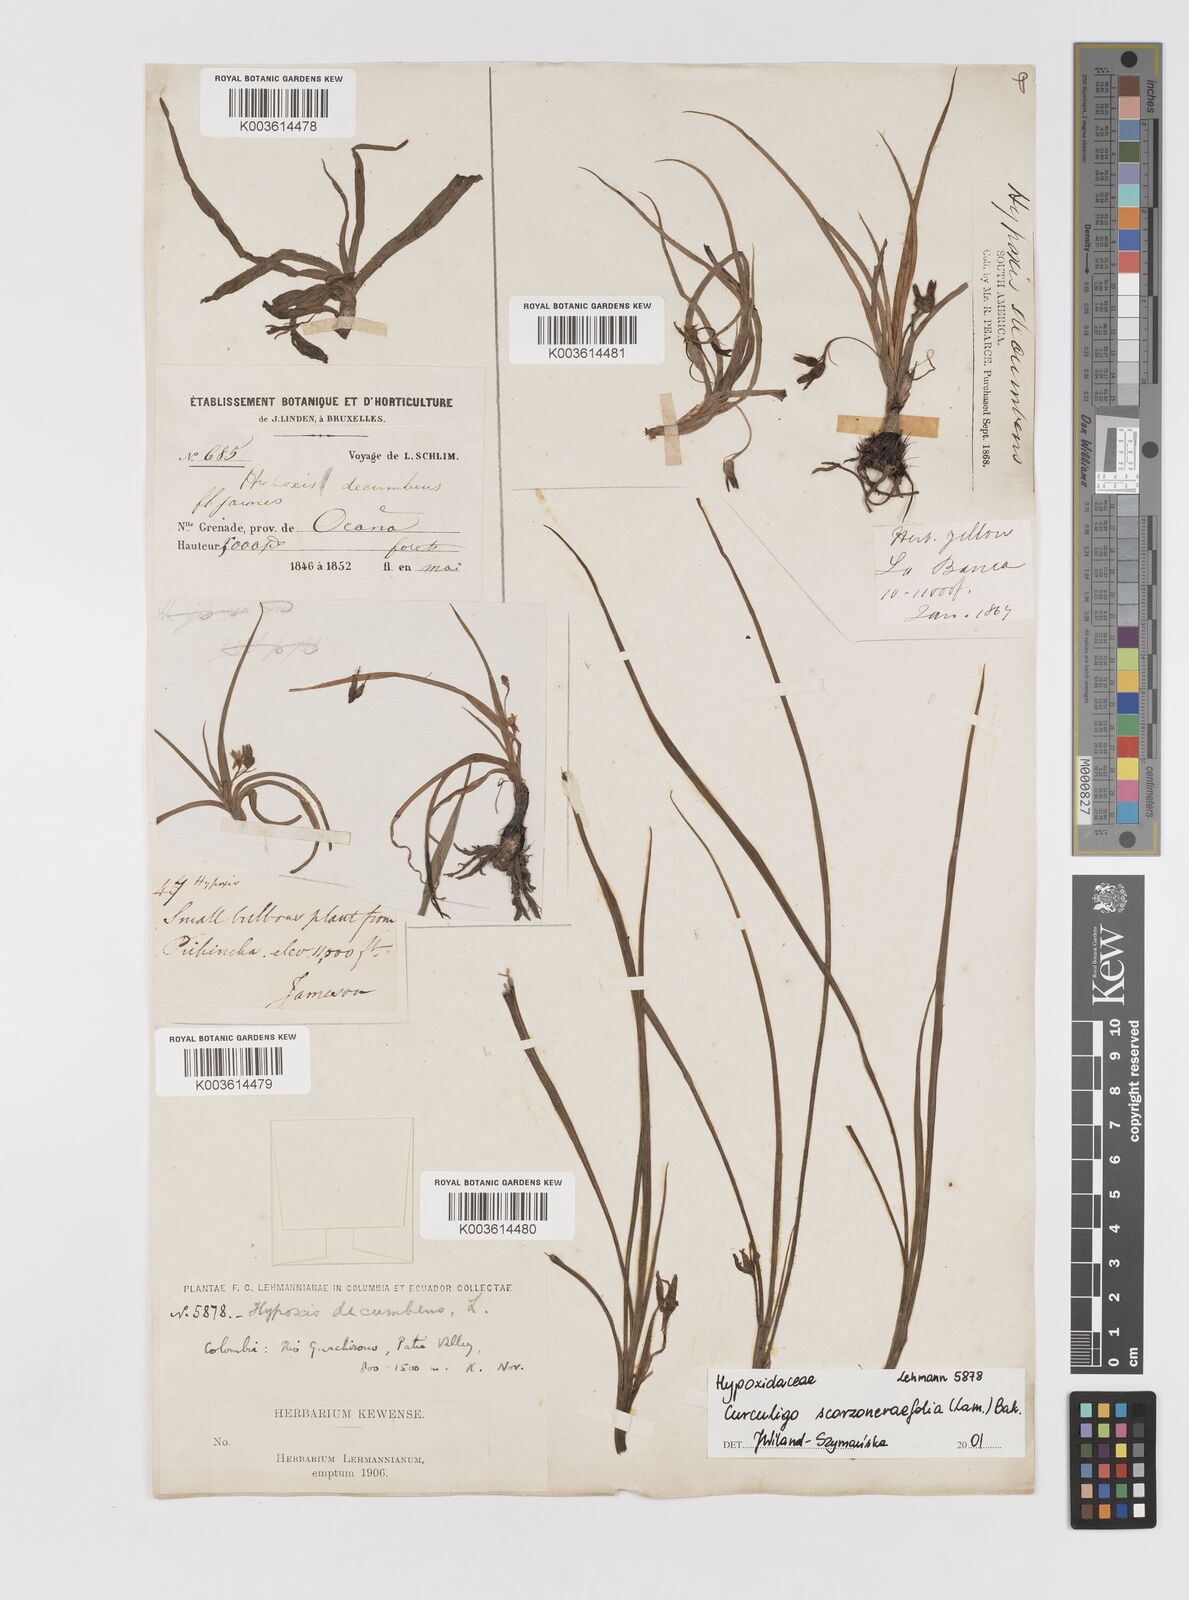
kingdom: Plantae
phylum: Tracheophyta
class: Liliopsida
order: Asparagales
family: Hypoxidaceae
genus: Curculigo
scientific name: Curculigo scorzonerifolia
